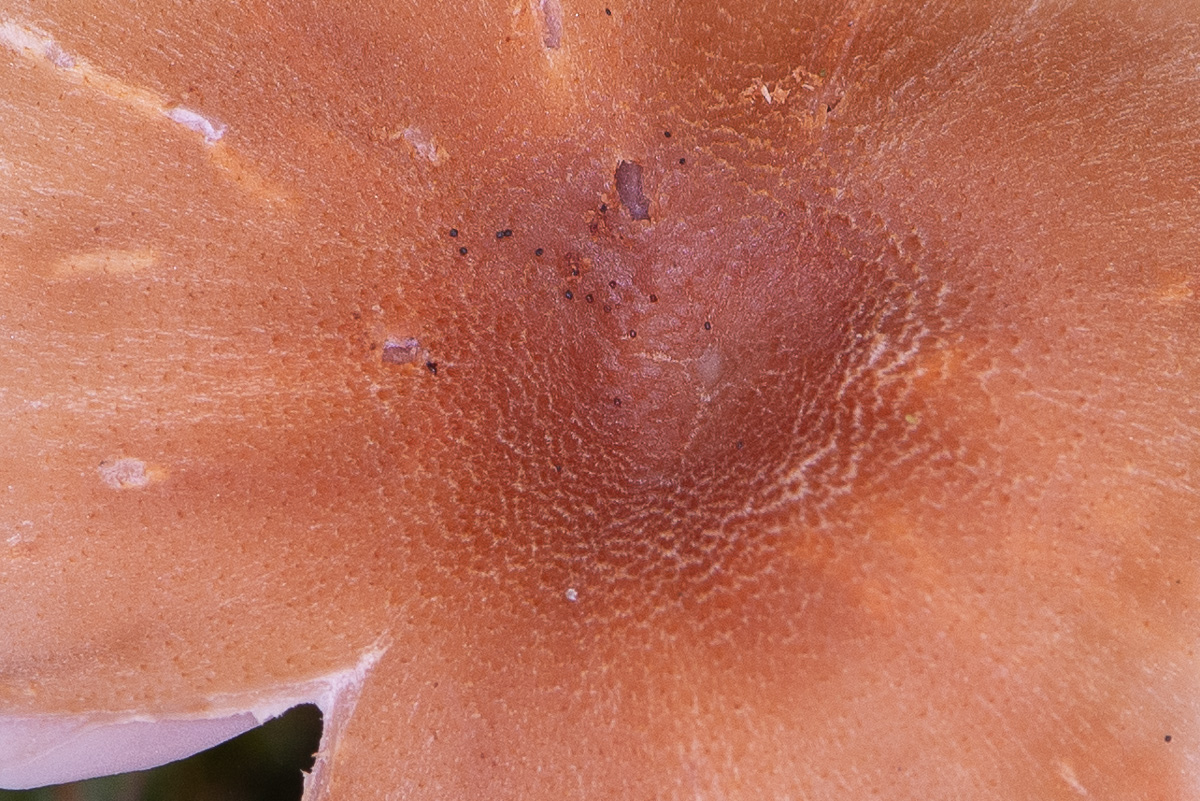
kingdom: Fungi
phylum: Basidiomycota
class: Agaricomycetes
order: Agaricales
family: Hydnangiaceae
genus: Laccaria
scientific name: Laccaria bicolor
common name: tvefarvet ametysthat
